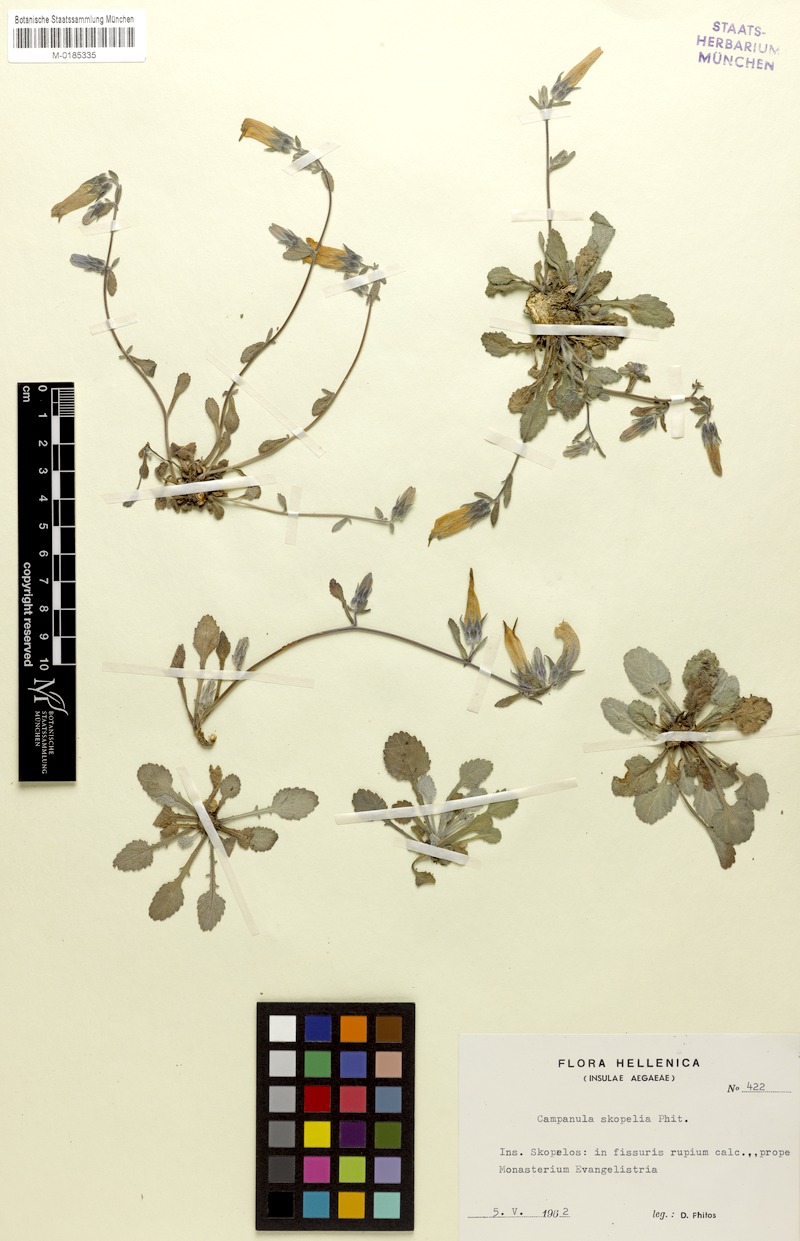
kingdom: Plantae
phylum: Tracheophyta
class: Magnoliopsida
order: Asterales
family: Campanulaceae
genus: Campanula
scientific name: Campanula scopelia
